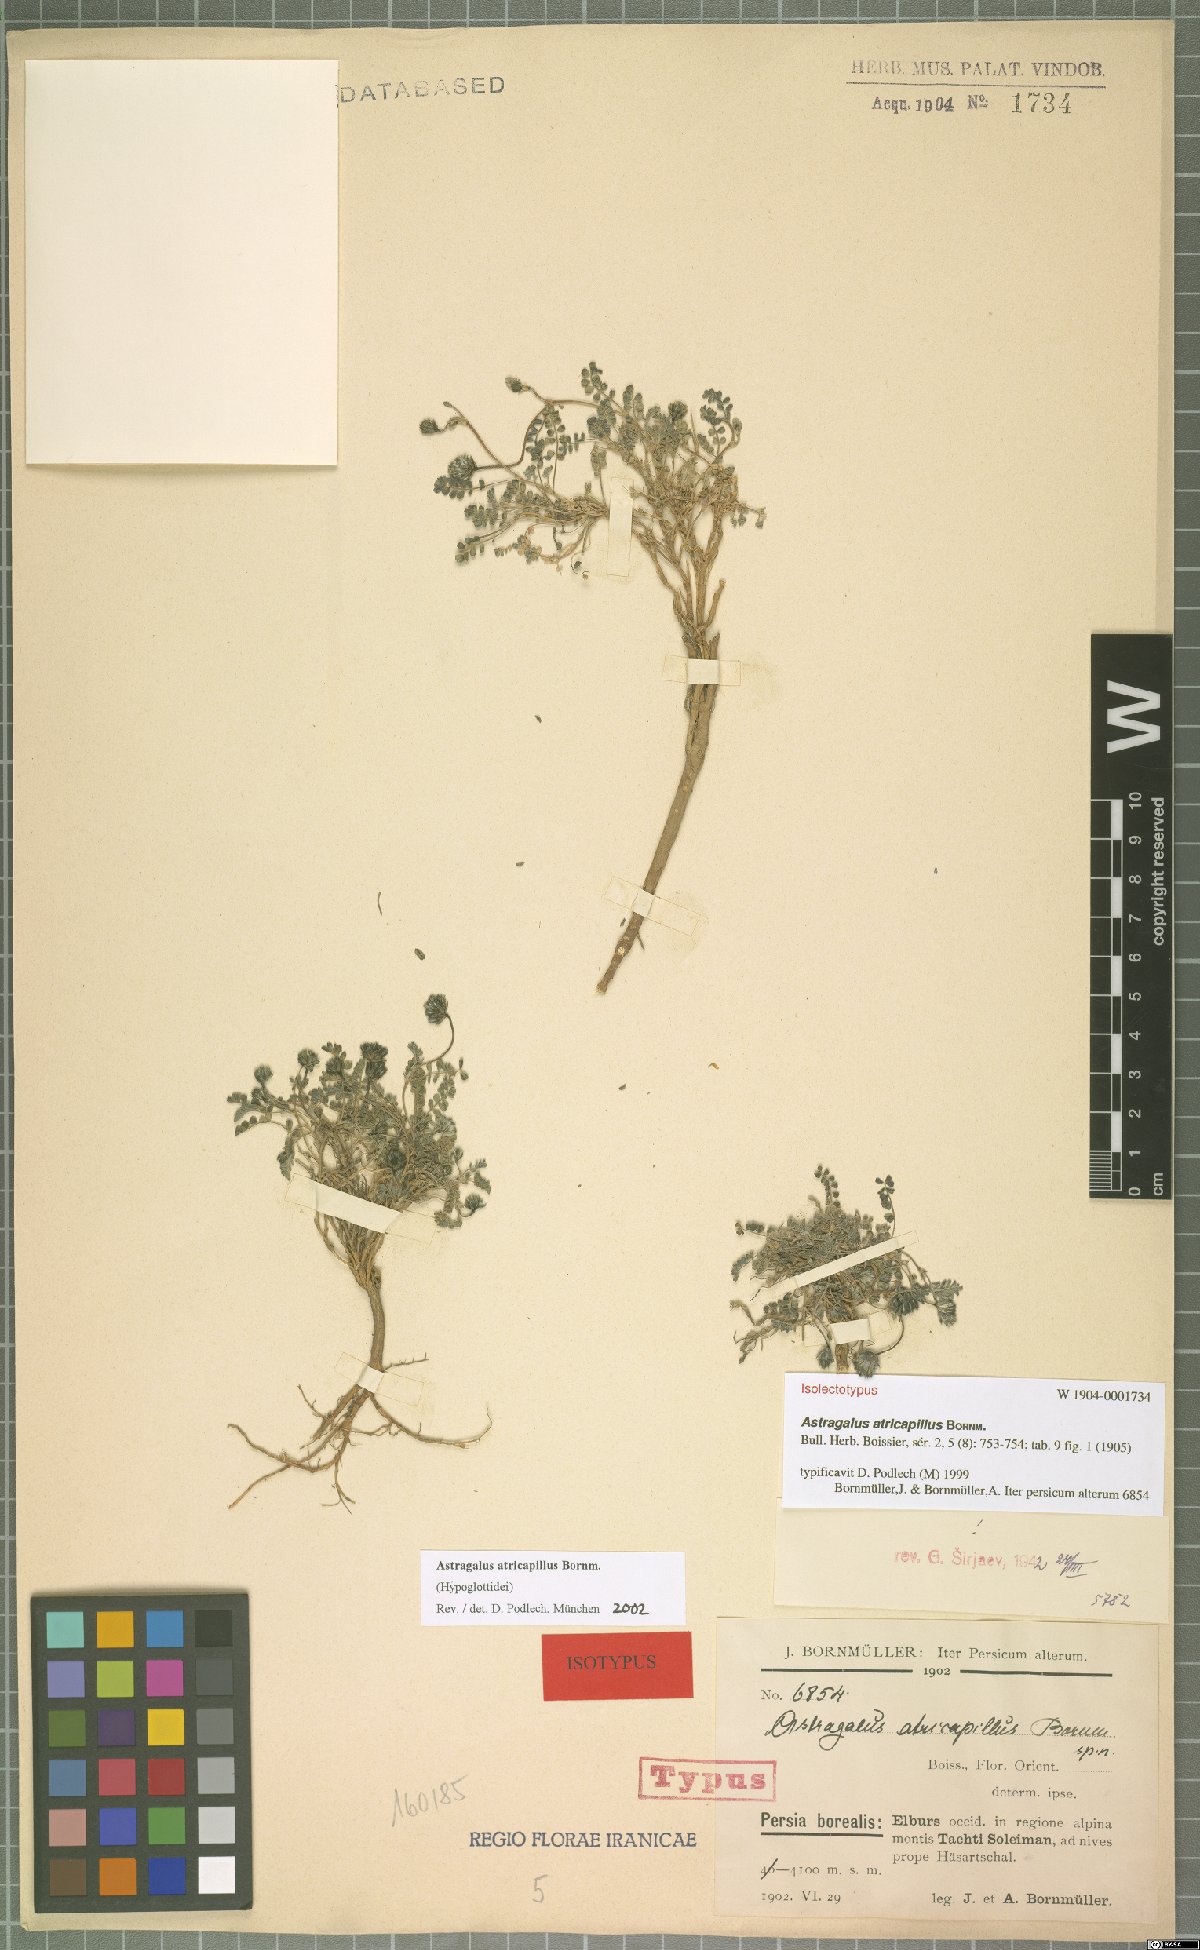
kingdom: Plantae
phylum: Tracheophyta
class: Magnoliopsida
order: Fabales
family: Fabaceae
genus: Astragalus
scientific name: Astragalus atricapillus
